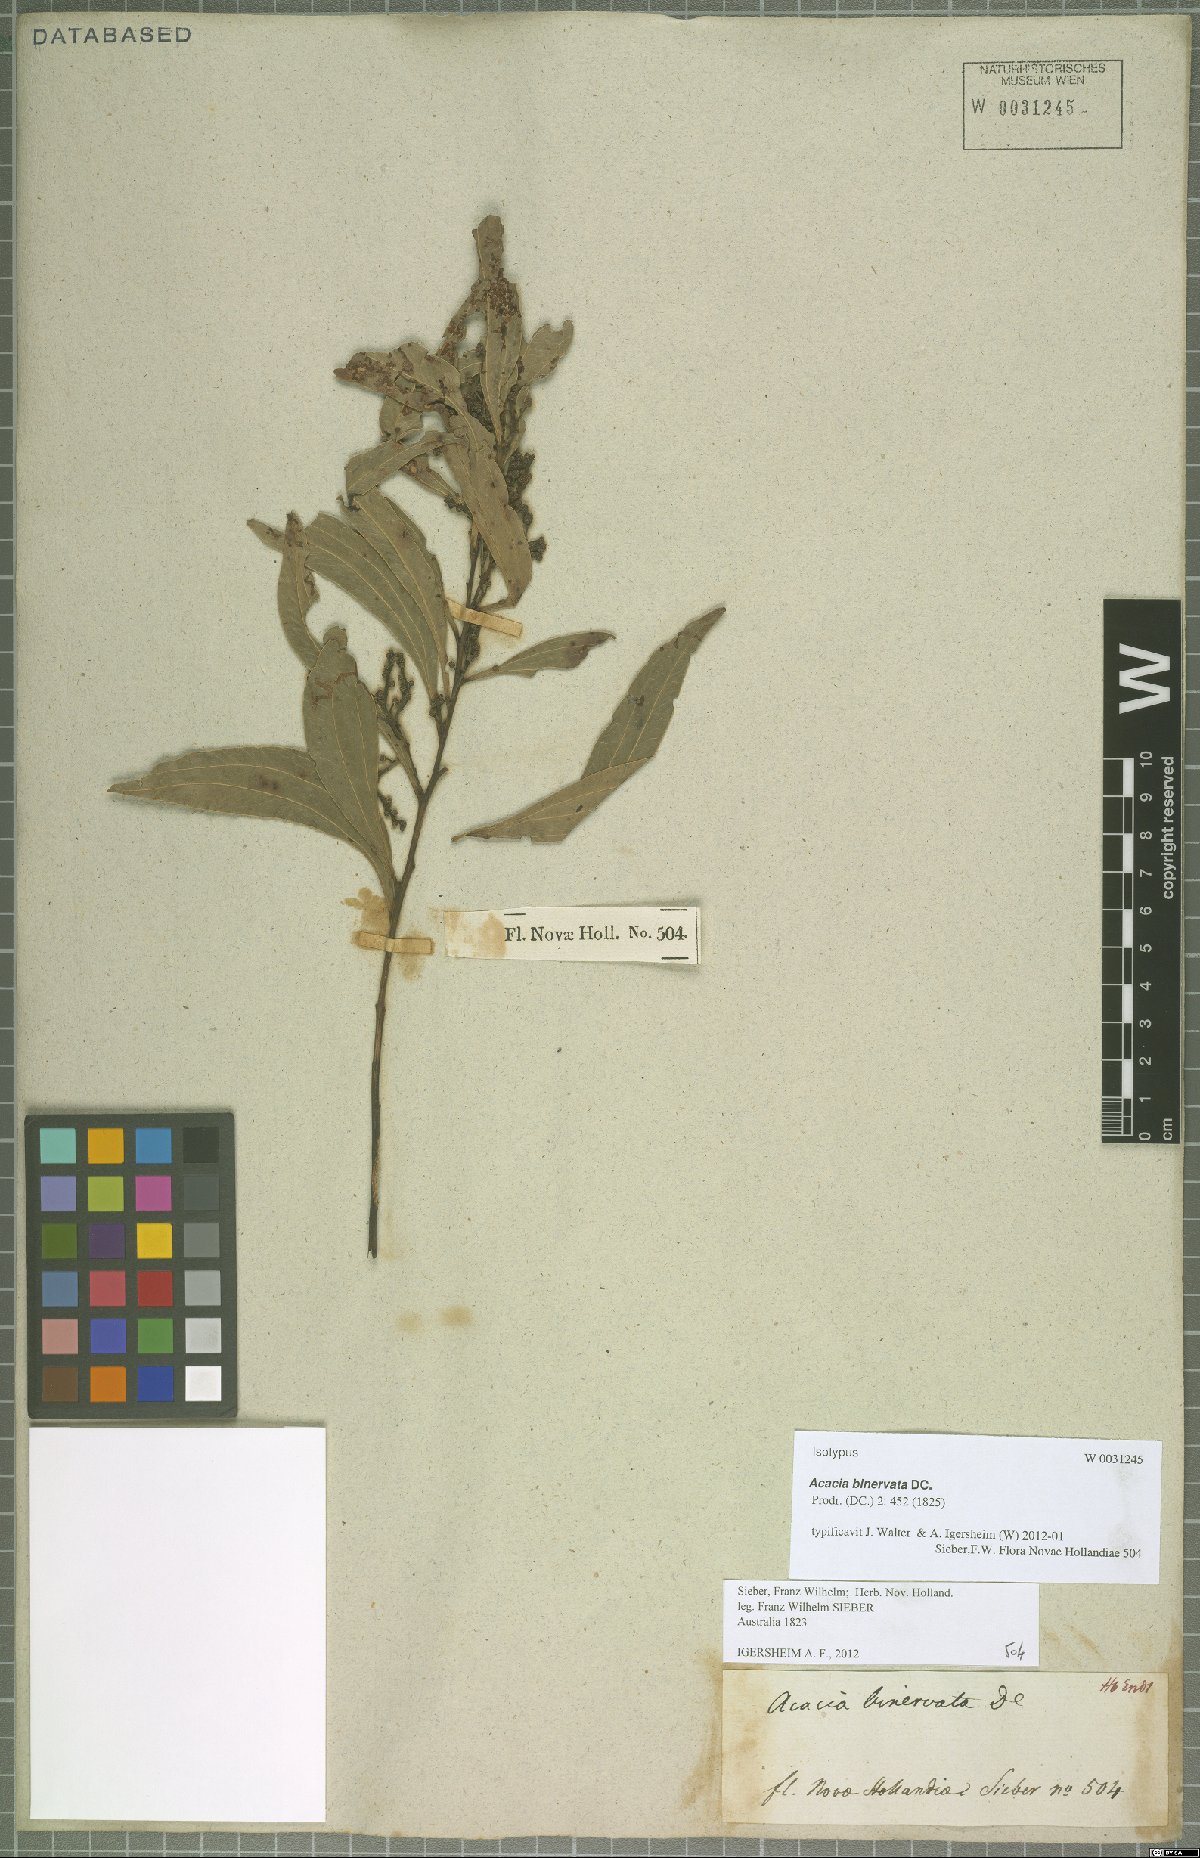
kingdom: Plantae
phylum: Tracheophyta
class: Magnoliopsida
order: Fabales
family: Fabaceae
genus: Acacia
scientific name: Acacia binervata
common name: Two-veined hickory
